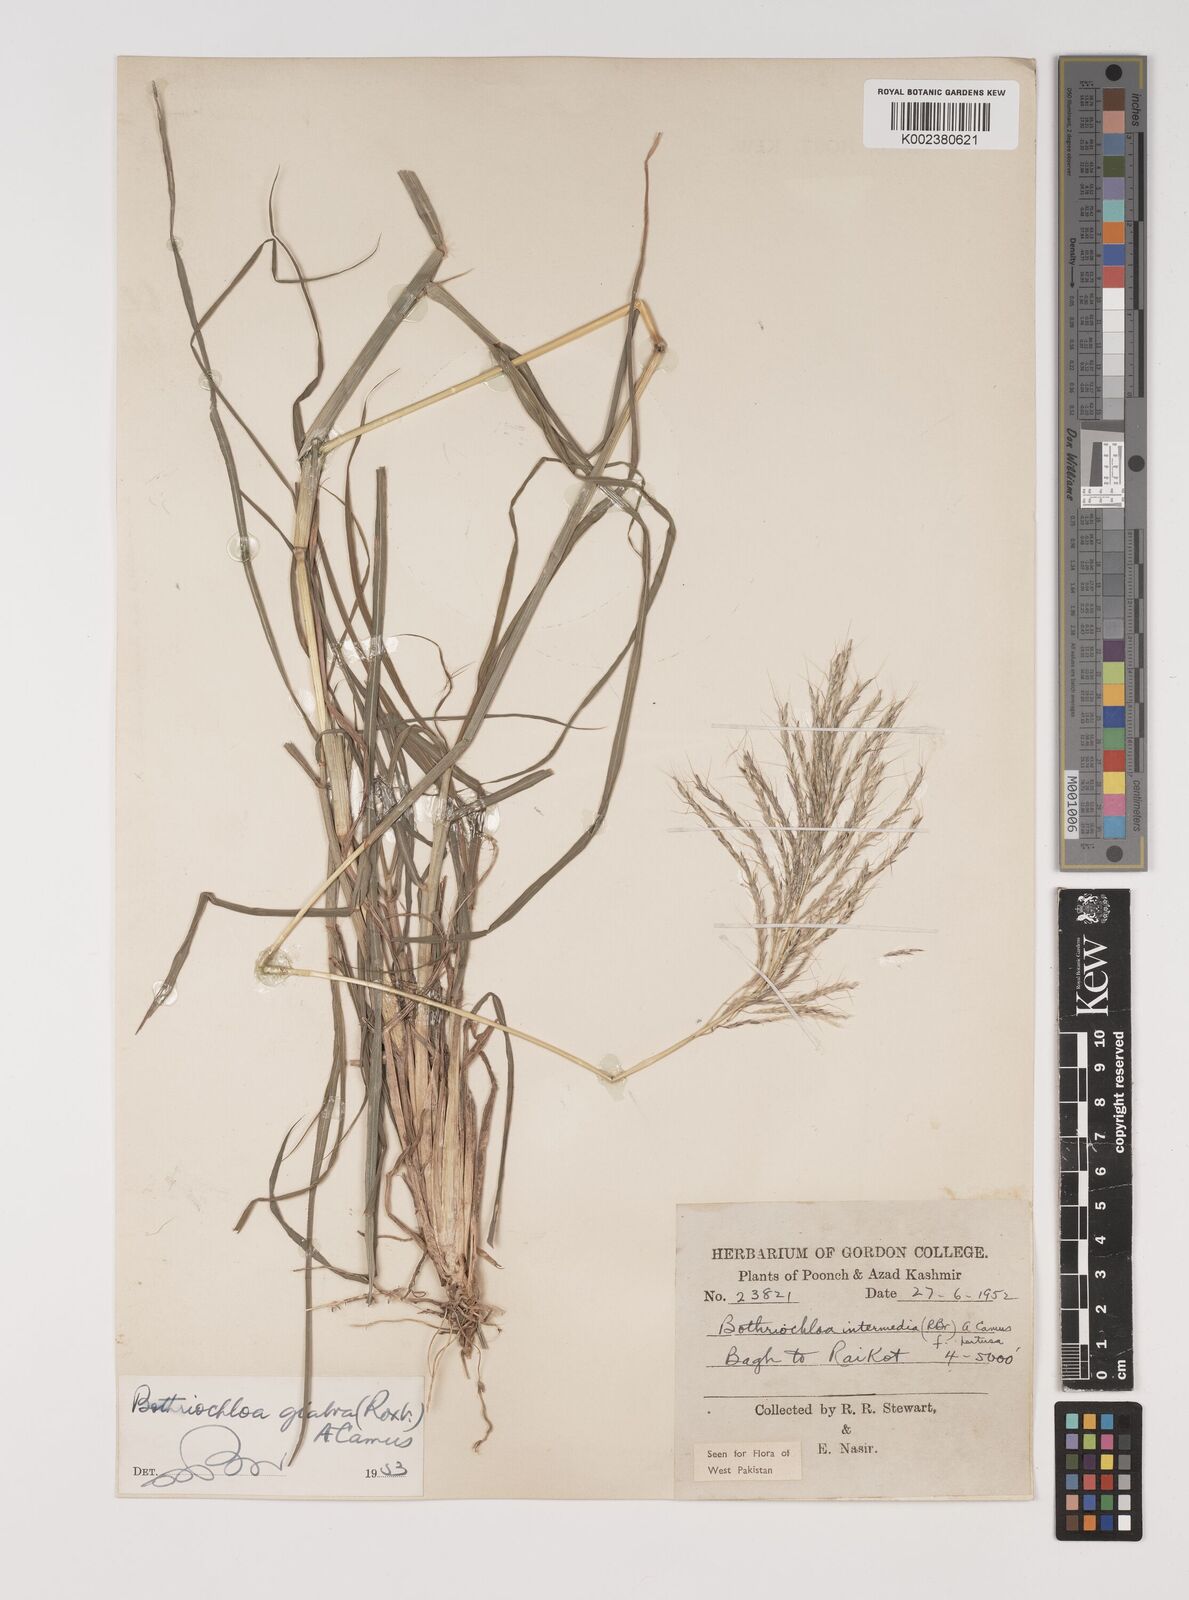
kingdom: Plantae
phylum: Tracheophyta
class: Liliopsida
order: Poales
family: Poaceae
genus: Bothriochloa
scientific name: Bothriochloa bladhii
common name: Caucasian bluestem
